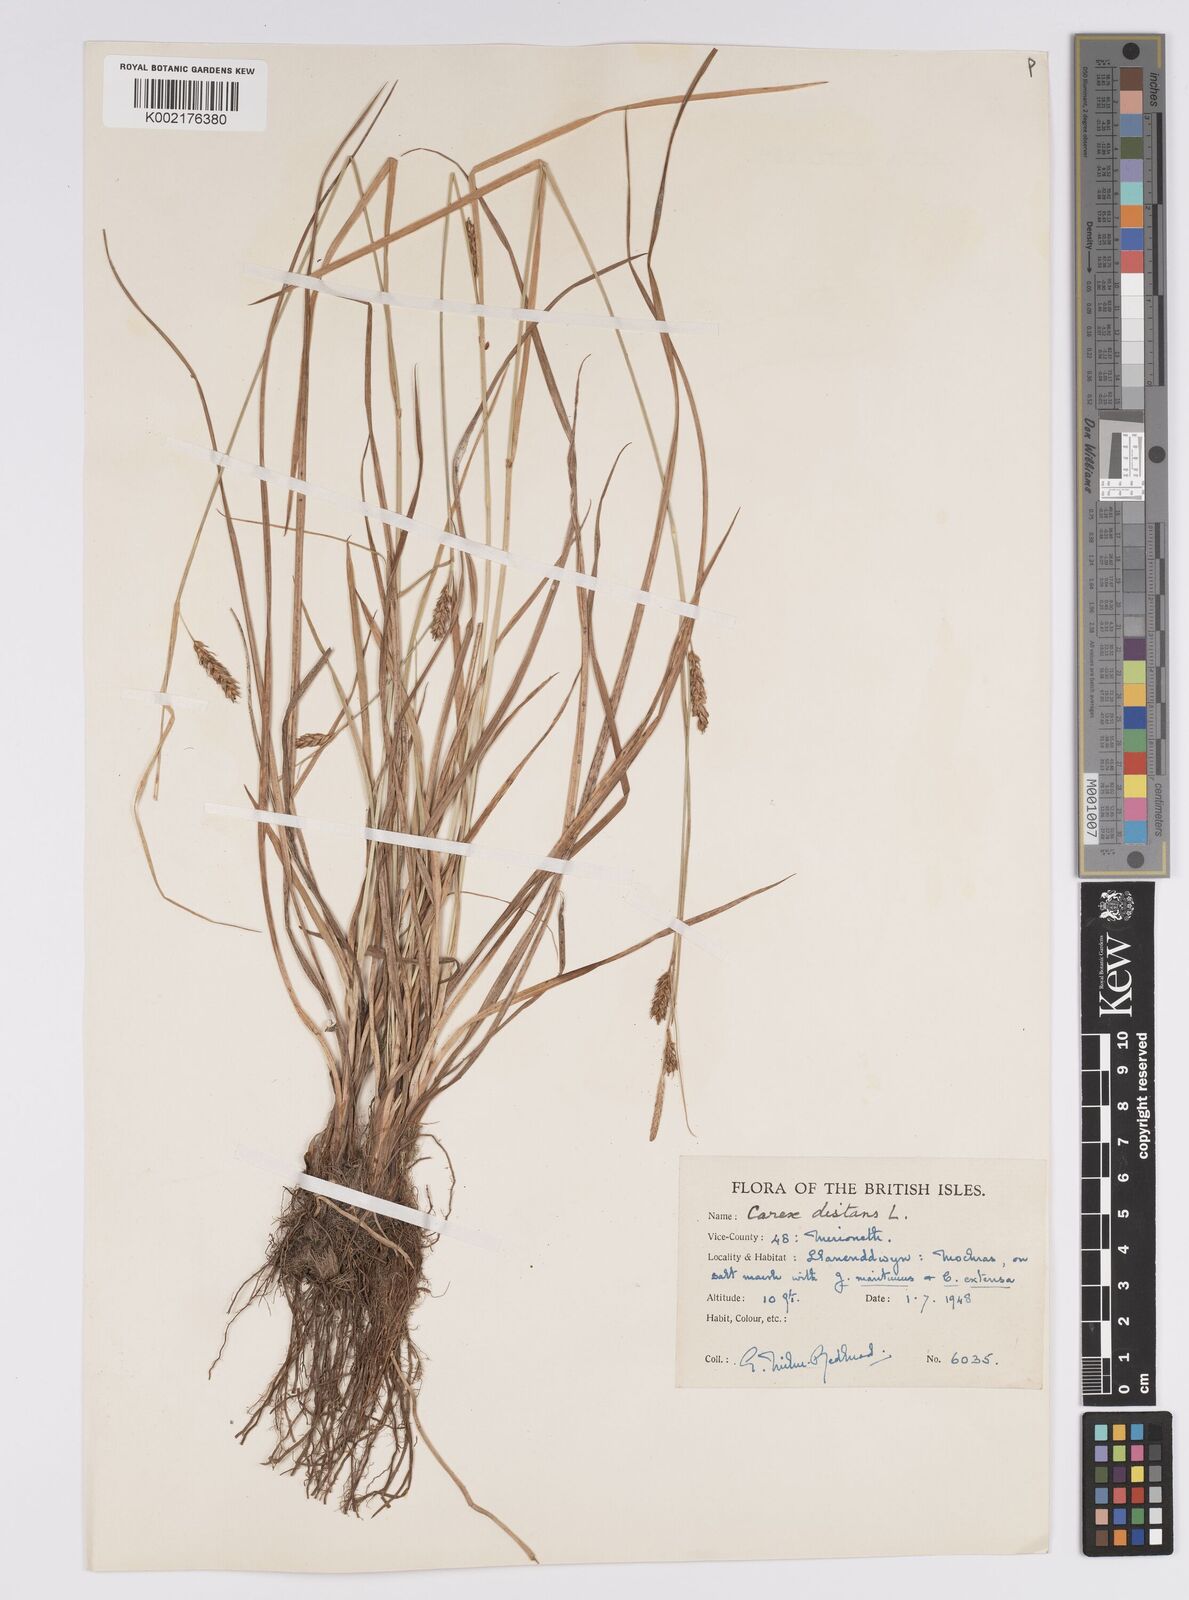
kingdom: Plantae
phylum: Tracheophyta
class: Liliopsida
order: Poales
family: Cyperaceae
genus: Carex
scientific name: Carex distans
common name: Distant sedge
